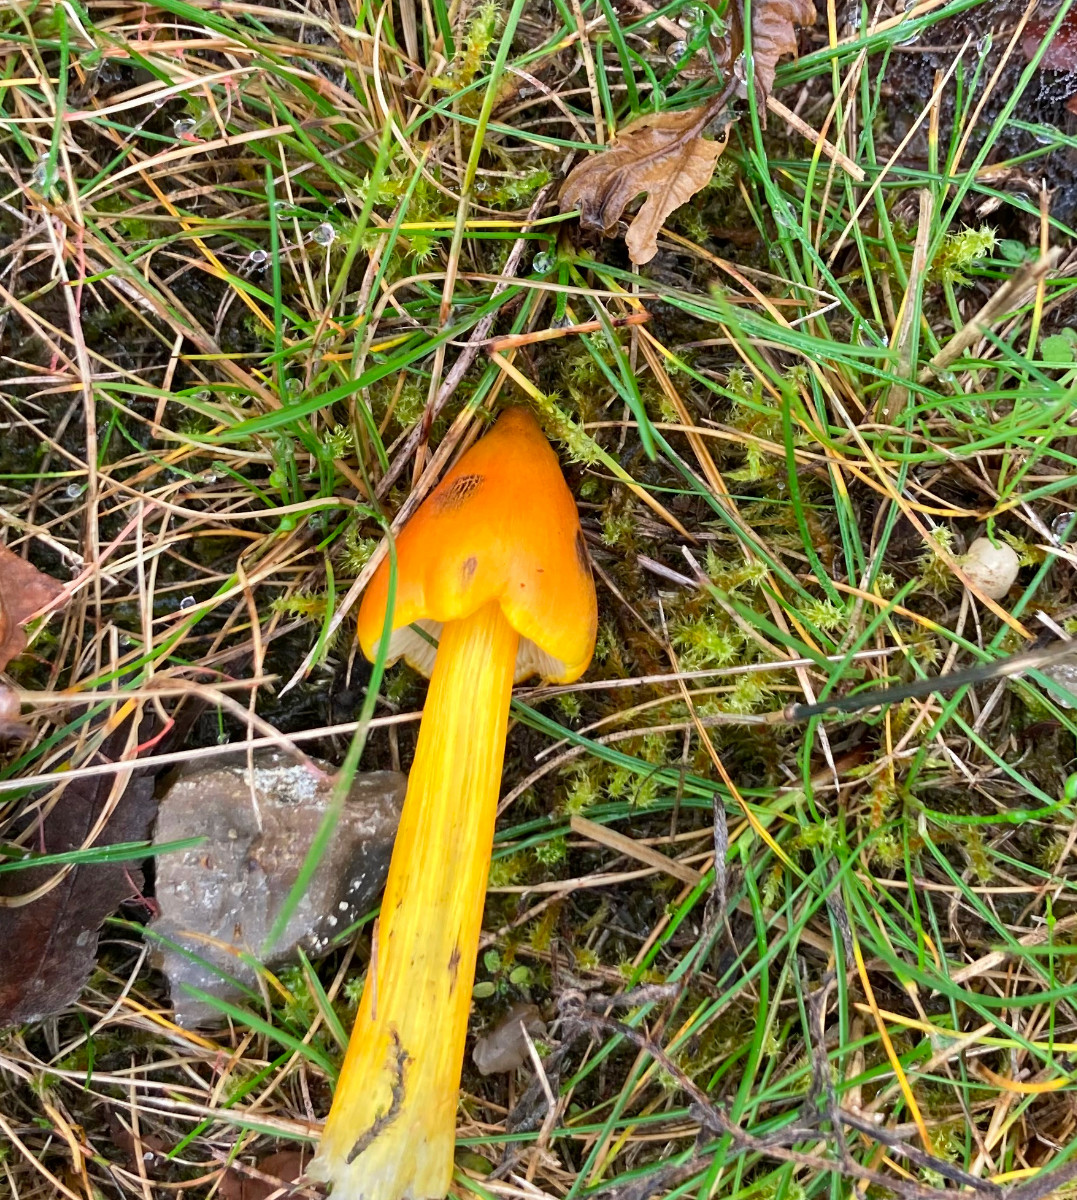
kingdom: Fungi
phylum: Basidiomycota
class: Agaricomycetes
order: Agaricales
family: Hygrophoraceae
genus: Hygrocybe
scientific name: Hygrocybe conica
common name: kegle-vokshat
